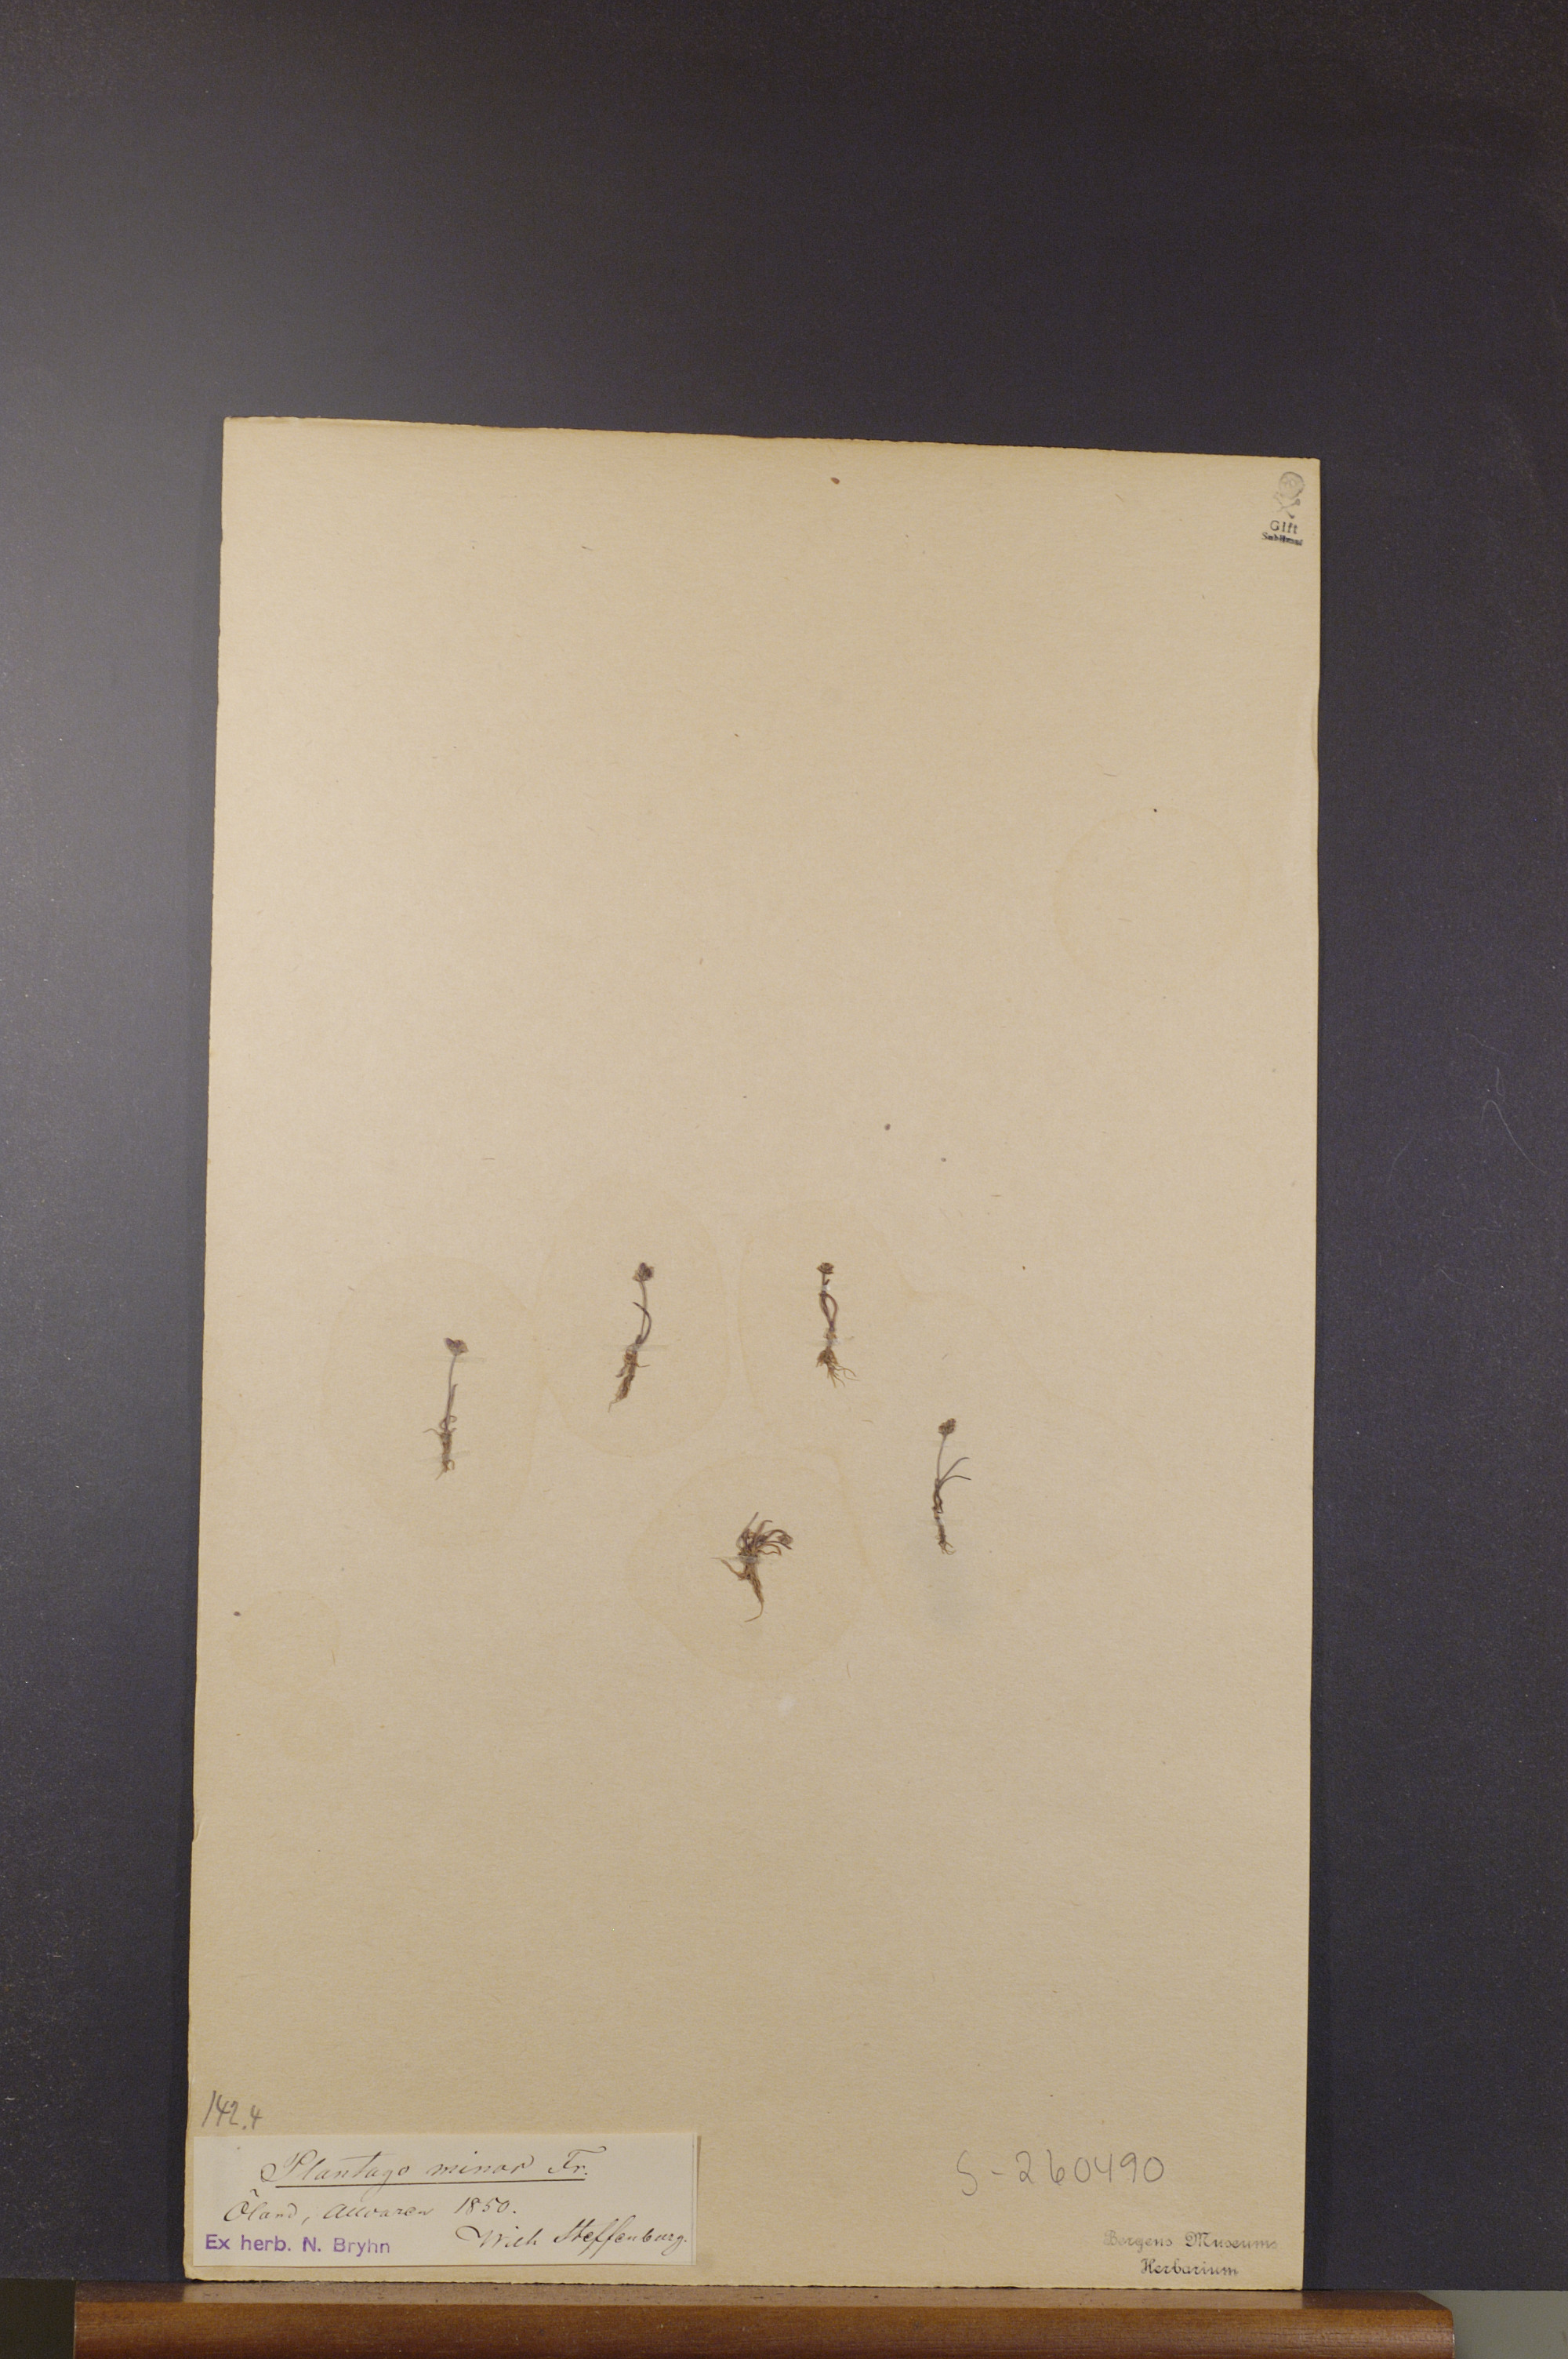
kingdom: Plantae
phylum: Tracheophyta
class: Magnoliopsida
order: Lamiales
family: Plantaginaceae
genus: Plantago
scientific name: Plantago tenuiflora
